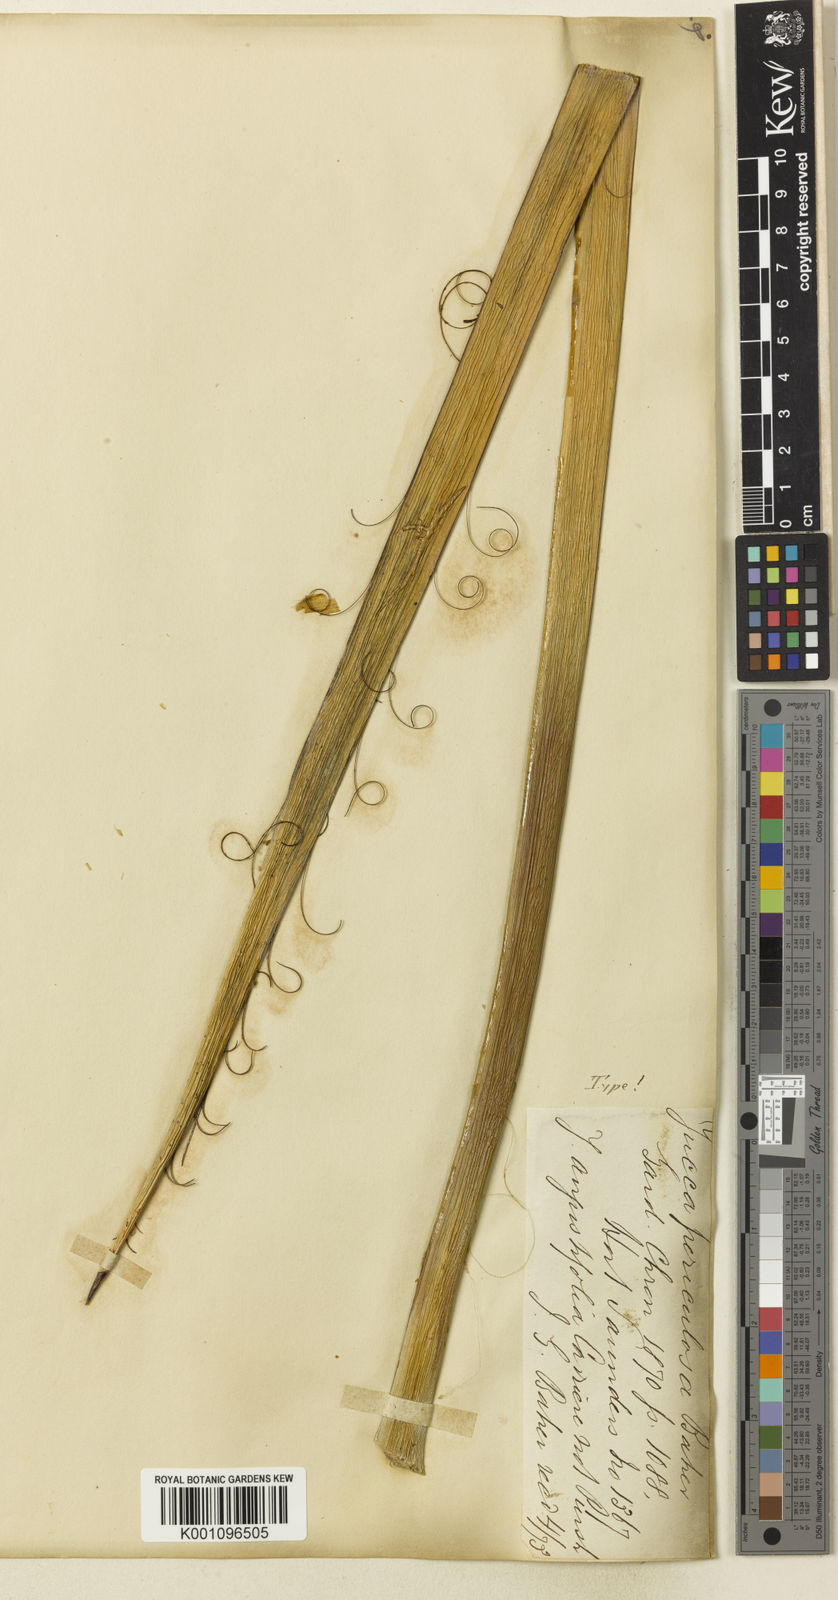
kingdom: Plantae
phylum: Tracheophyta
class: Liliopsida
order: Asparagales
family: Asparagaceae
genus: Yucca
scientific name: Yucca periculosa
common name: Izote yucca
